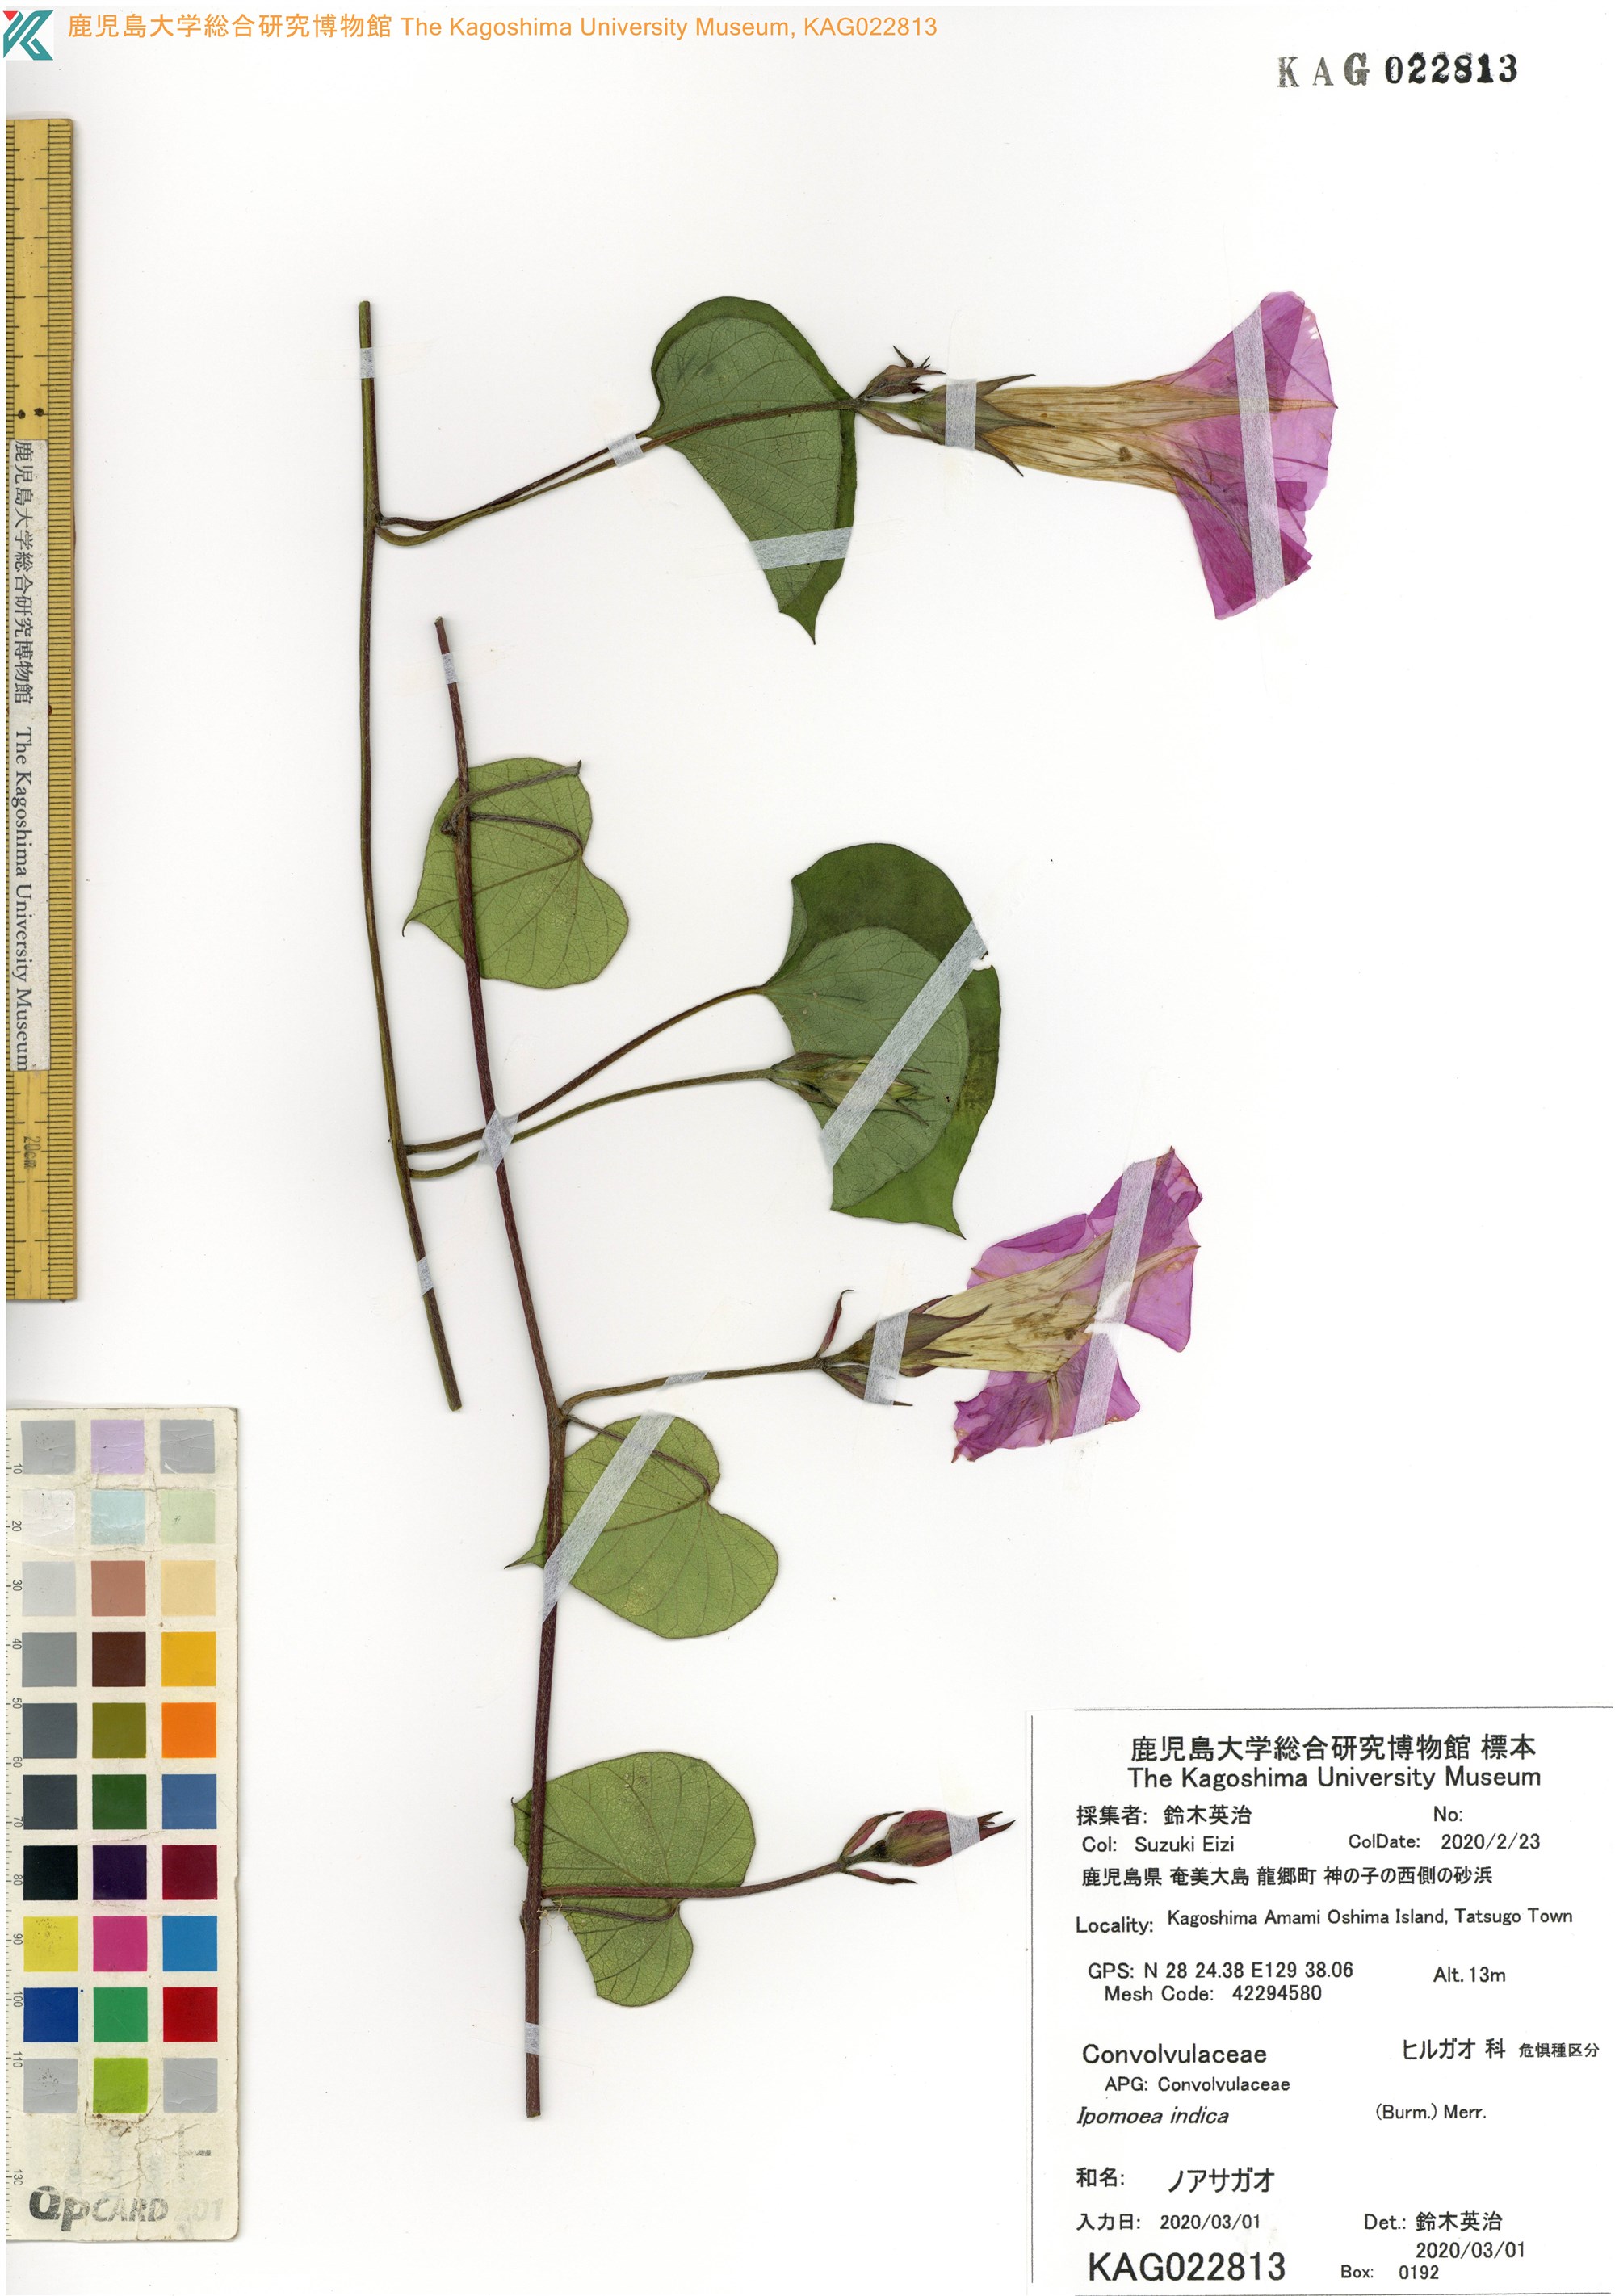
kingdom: Plantae
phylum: Tracheophyta
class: Magnoliopsida
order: Solanales
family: Convolvulaceae
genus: Ipomoea
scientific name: Ipomoea indica
